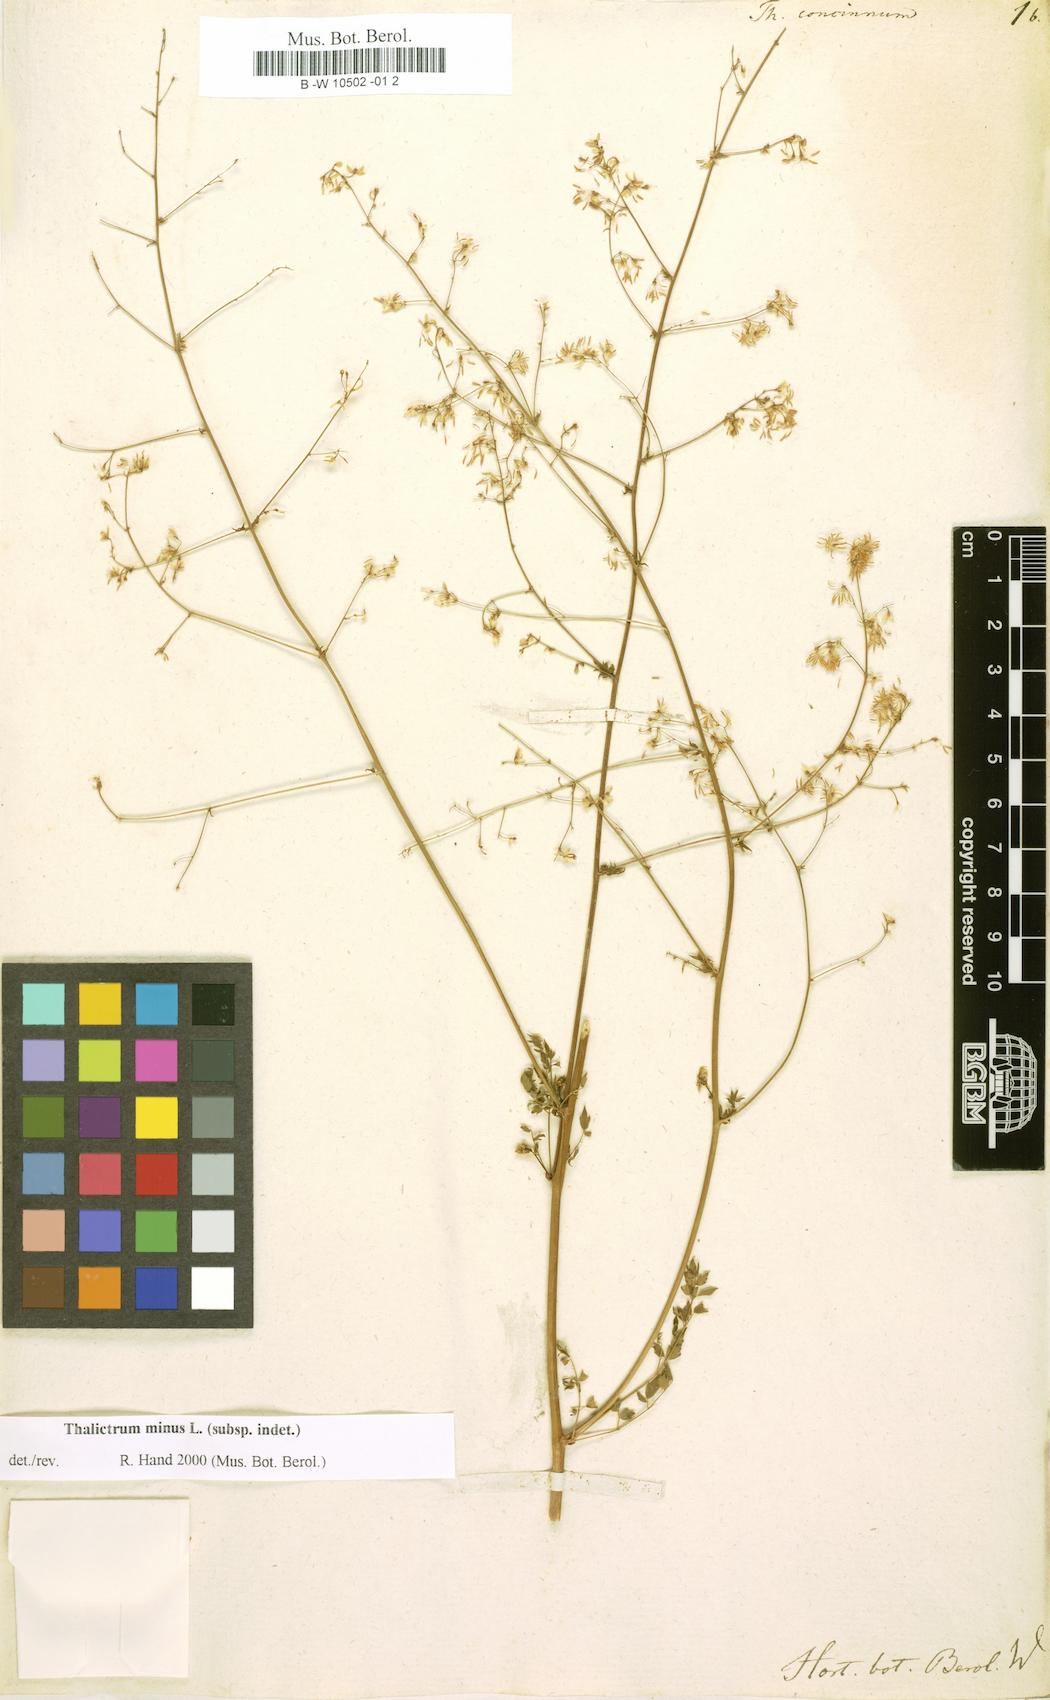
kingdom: Plantae
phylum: Tracheophyta
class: Magnoliopsida
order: Ranunculales
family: Ranunculaceae
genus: Thalictrum
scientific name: Thalictrum minus
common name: Lesser meadow-rue
